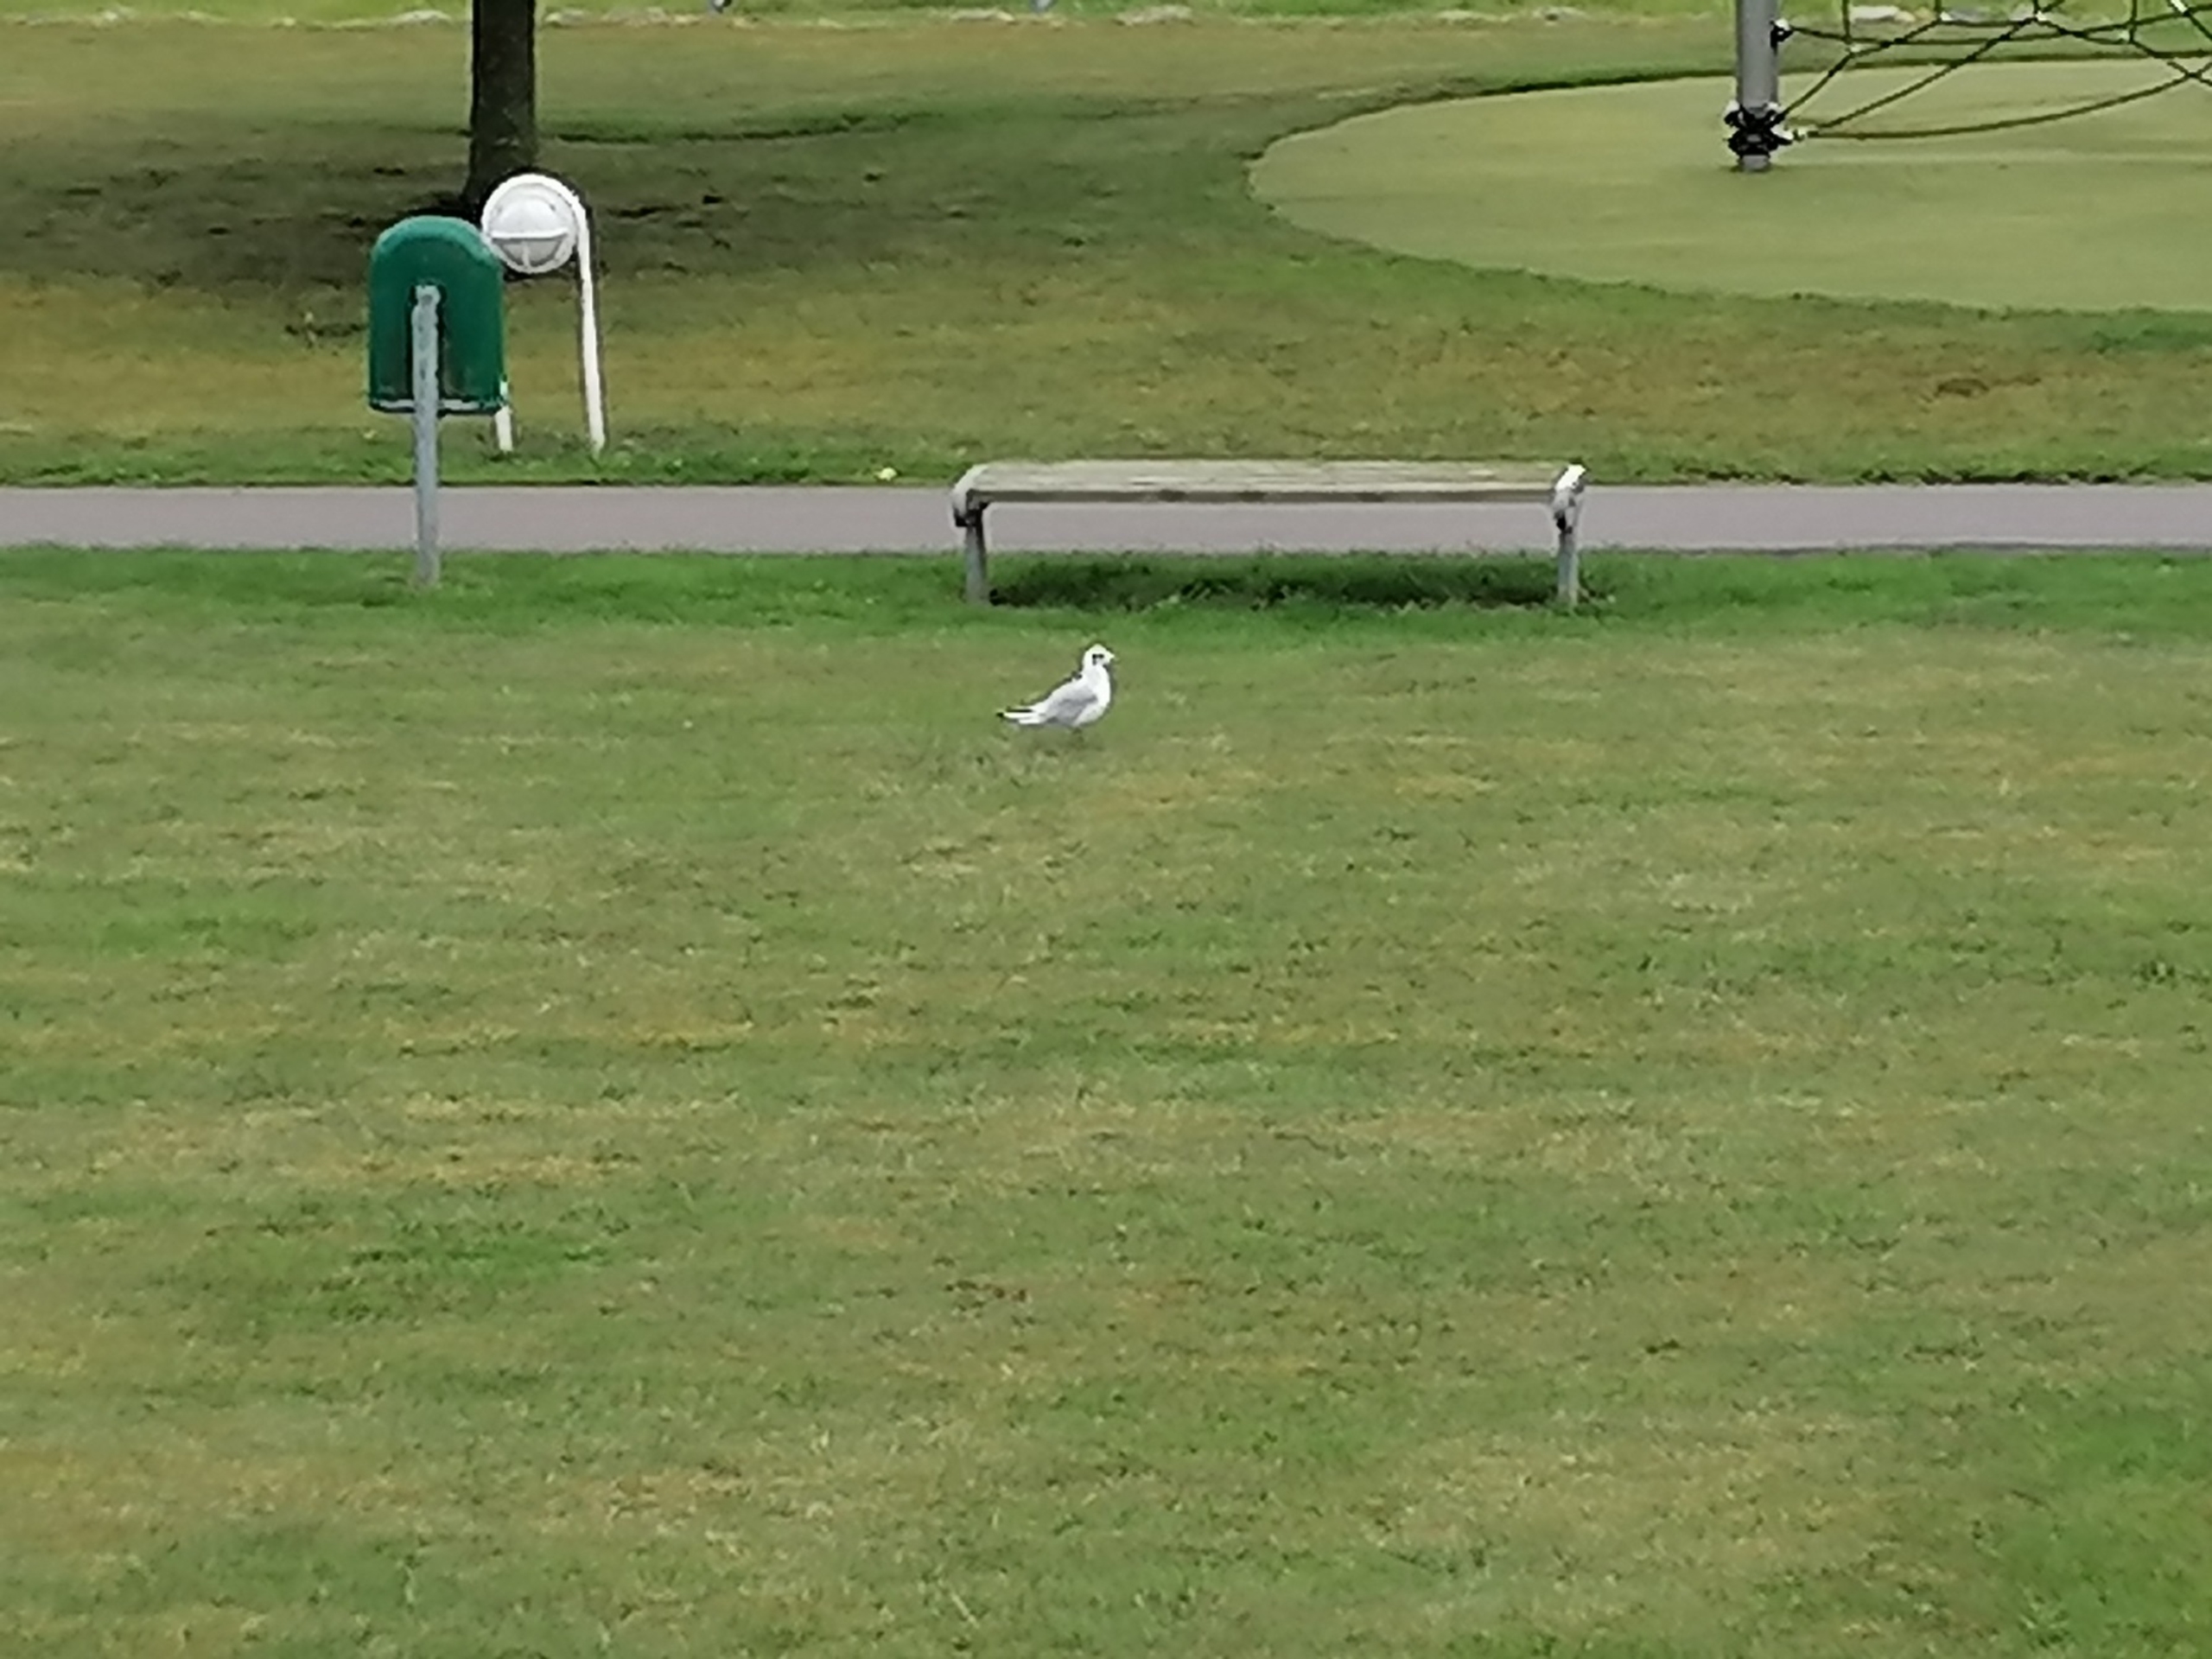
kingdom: Animalia
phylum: Chordata
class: Aves
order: Charadriiformes
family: Laridae
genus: Chroicocephalus
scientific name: Chroicocephalus ridibundus
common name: Hættemåge
